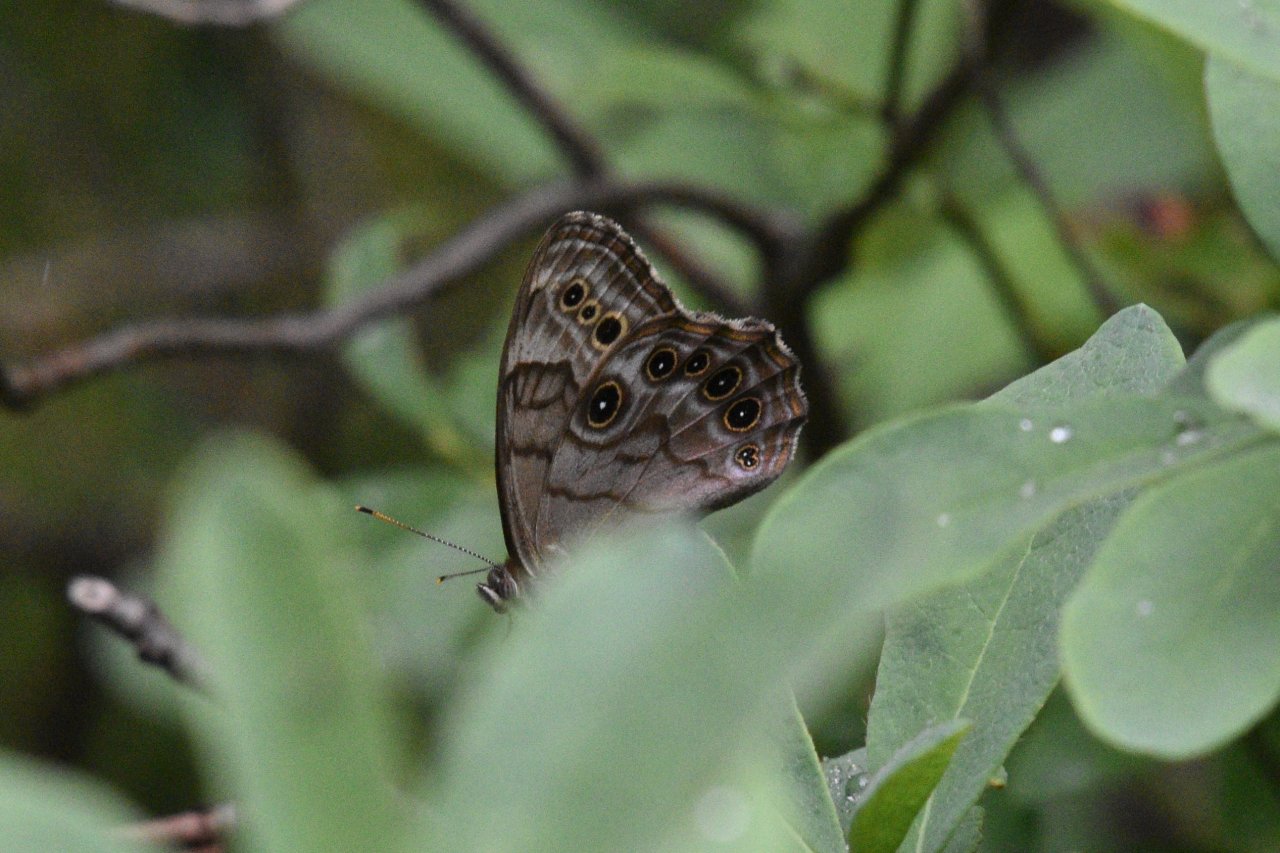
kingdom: Animalia
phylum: Arthropoda
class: Insecta
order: Lepidoptera
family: Nymphalidae
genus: Lethe
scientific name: Lethe anthedon
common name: Northern Pearly-Eye
